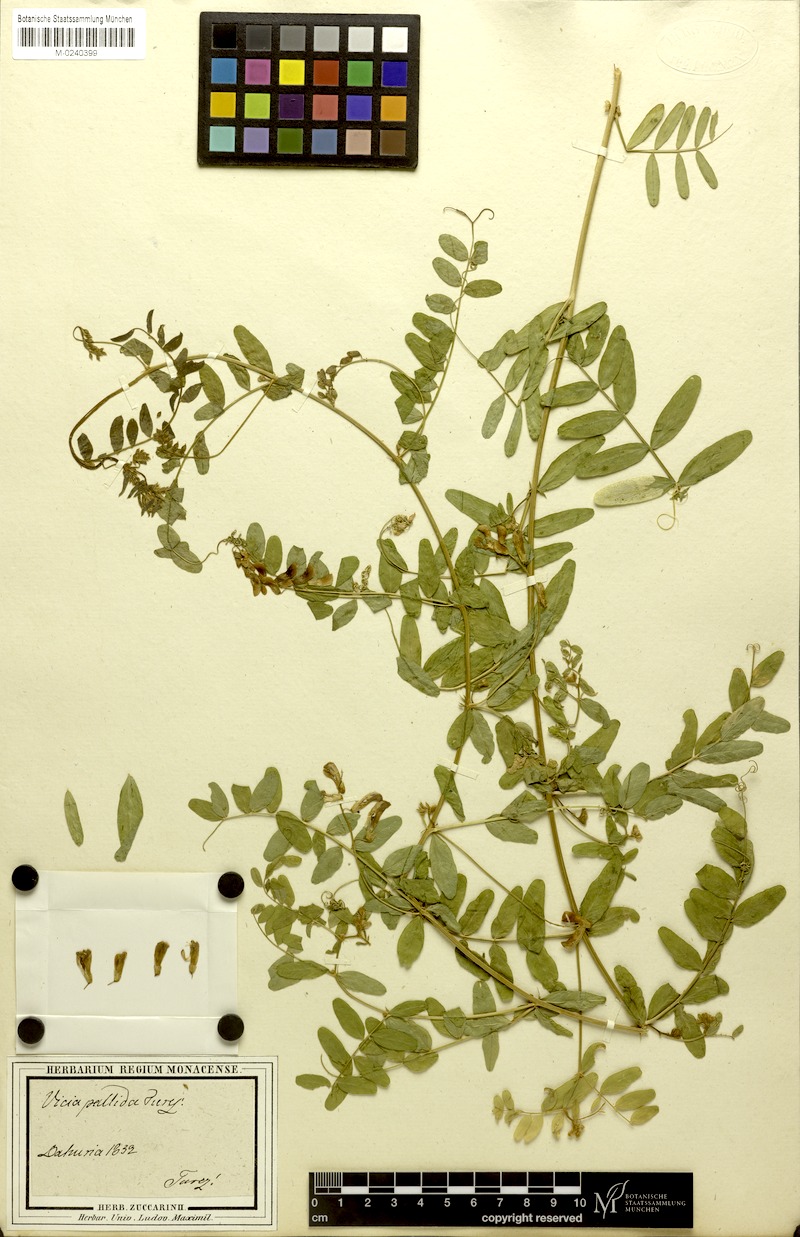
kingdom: Plantae
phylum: Tracheophyta
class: Magnoliopsida
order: Fabales
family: Fabaceae
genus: Vicia
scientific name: Vicia woroschilovii
